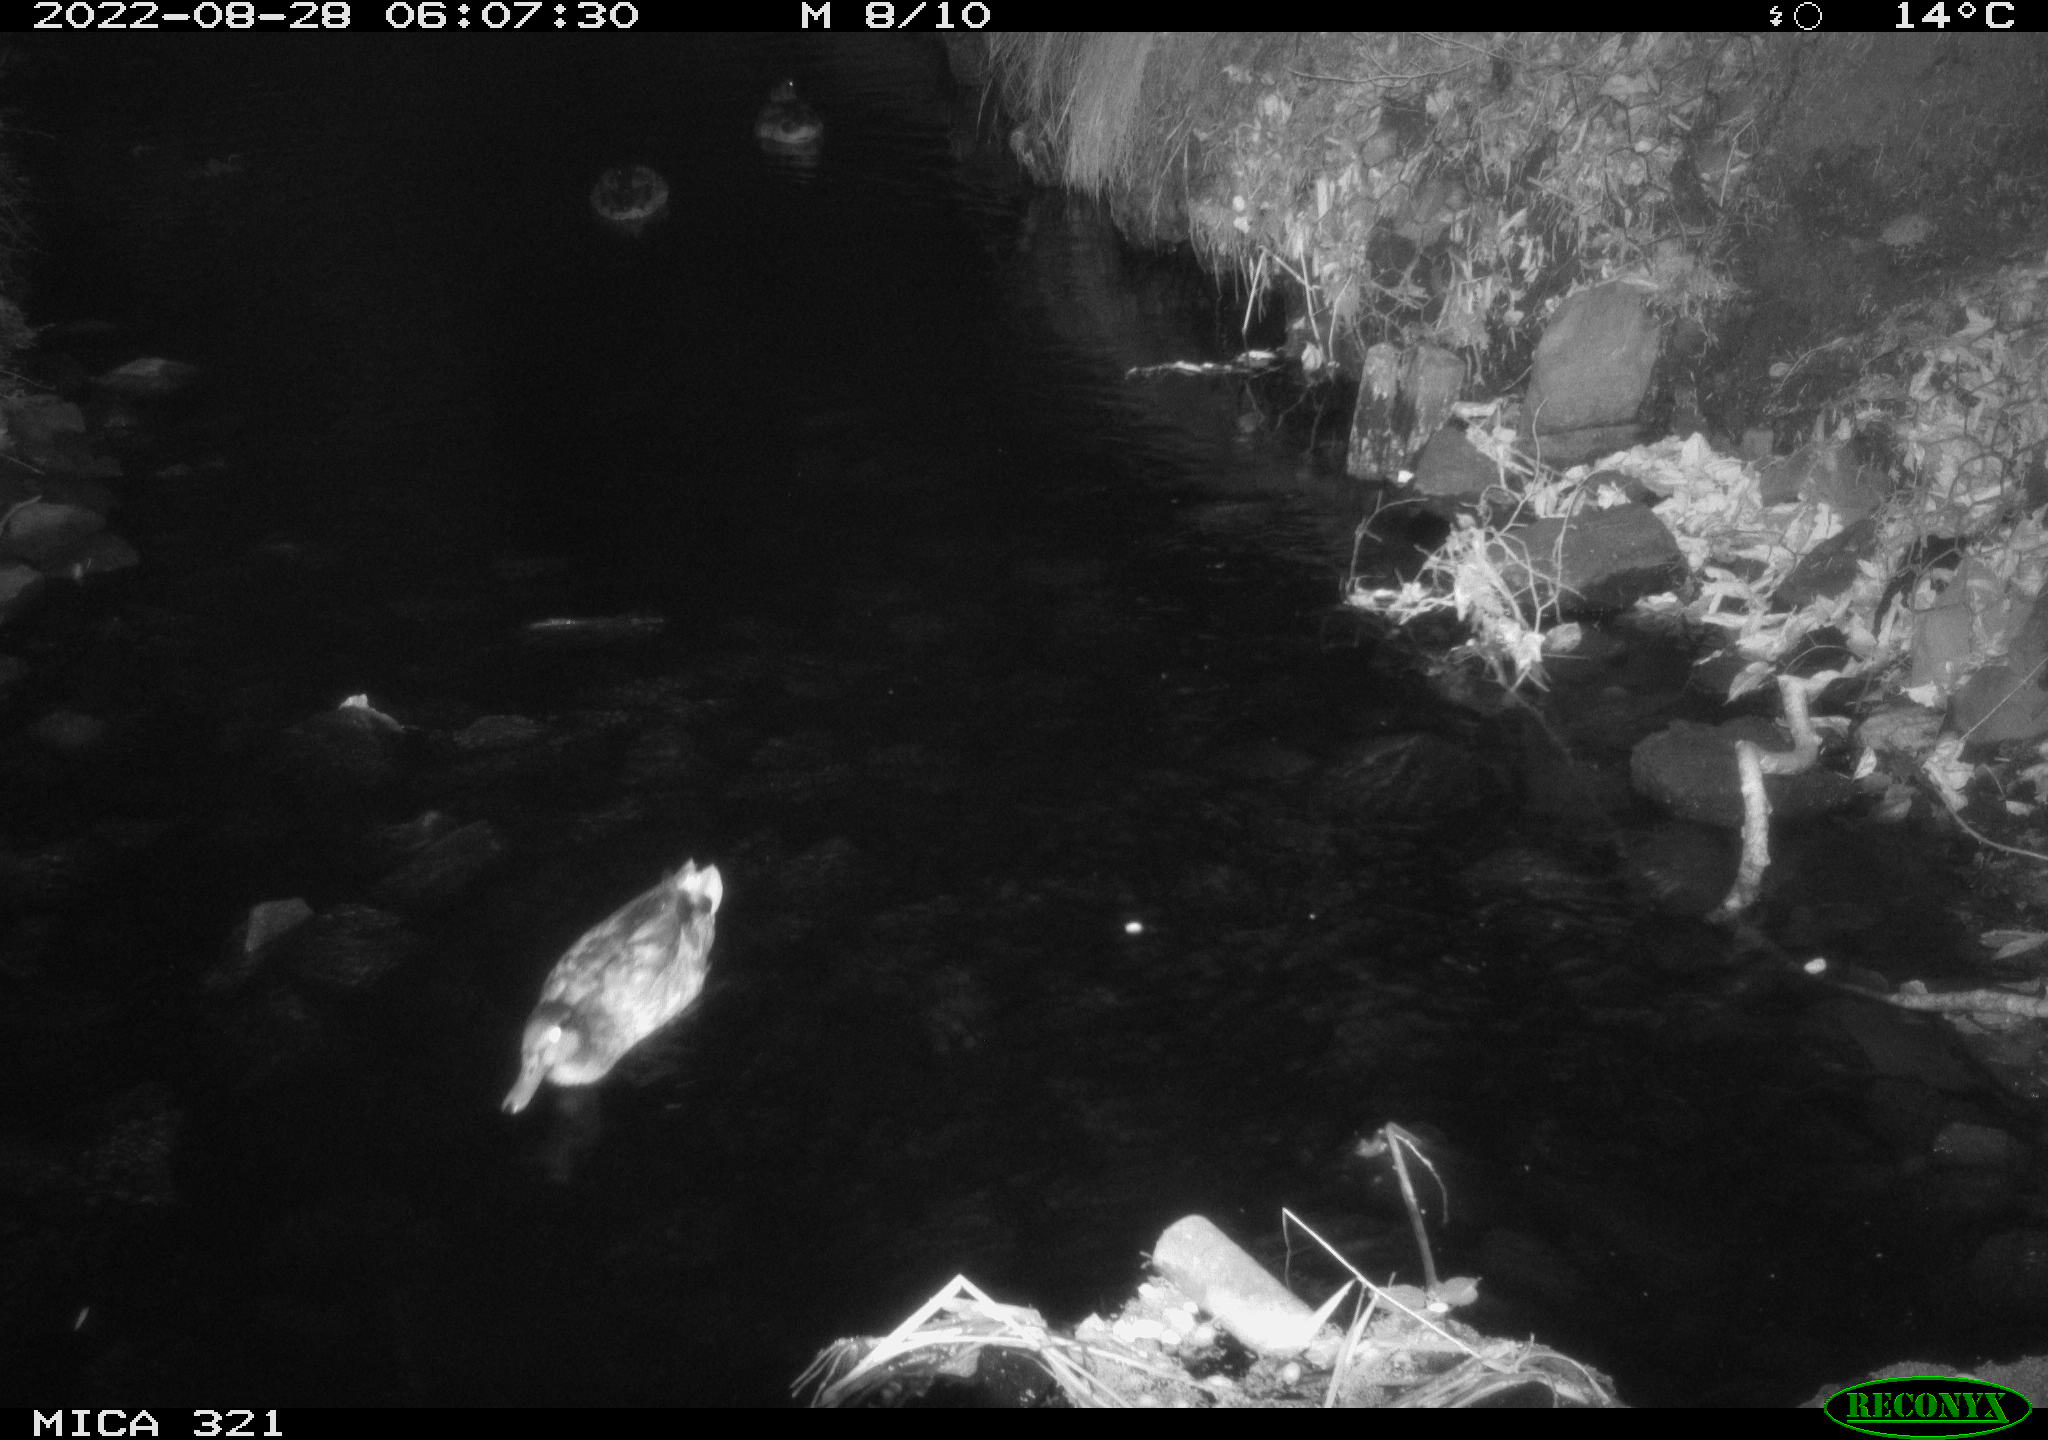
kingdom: Animalia
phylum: Chordata
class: Aves
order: Anseriformes
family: Anatidae
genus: Anas
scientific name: Anas platyrhynchos
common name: Mallard
